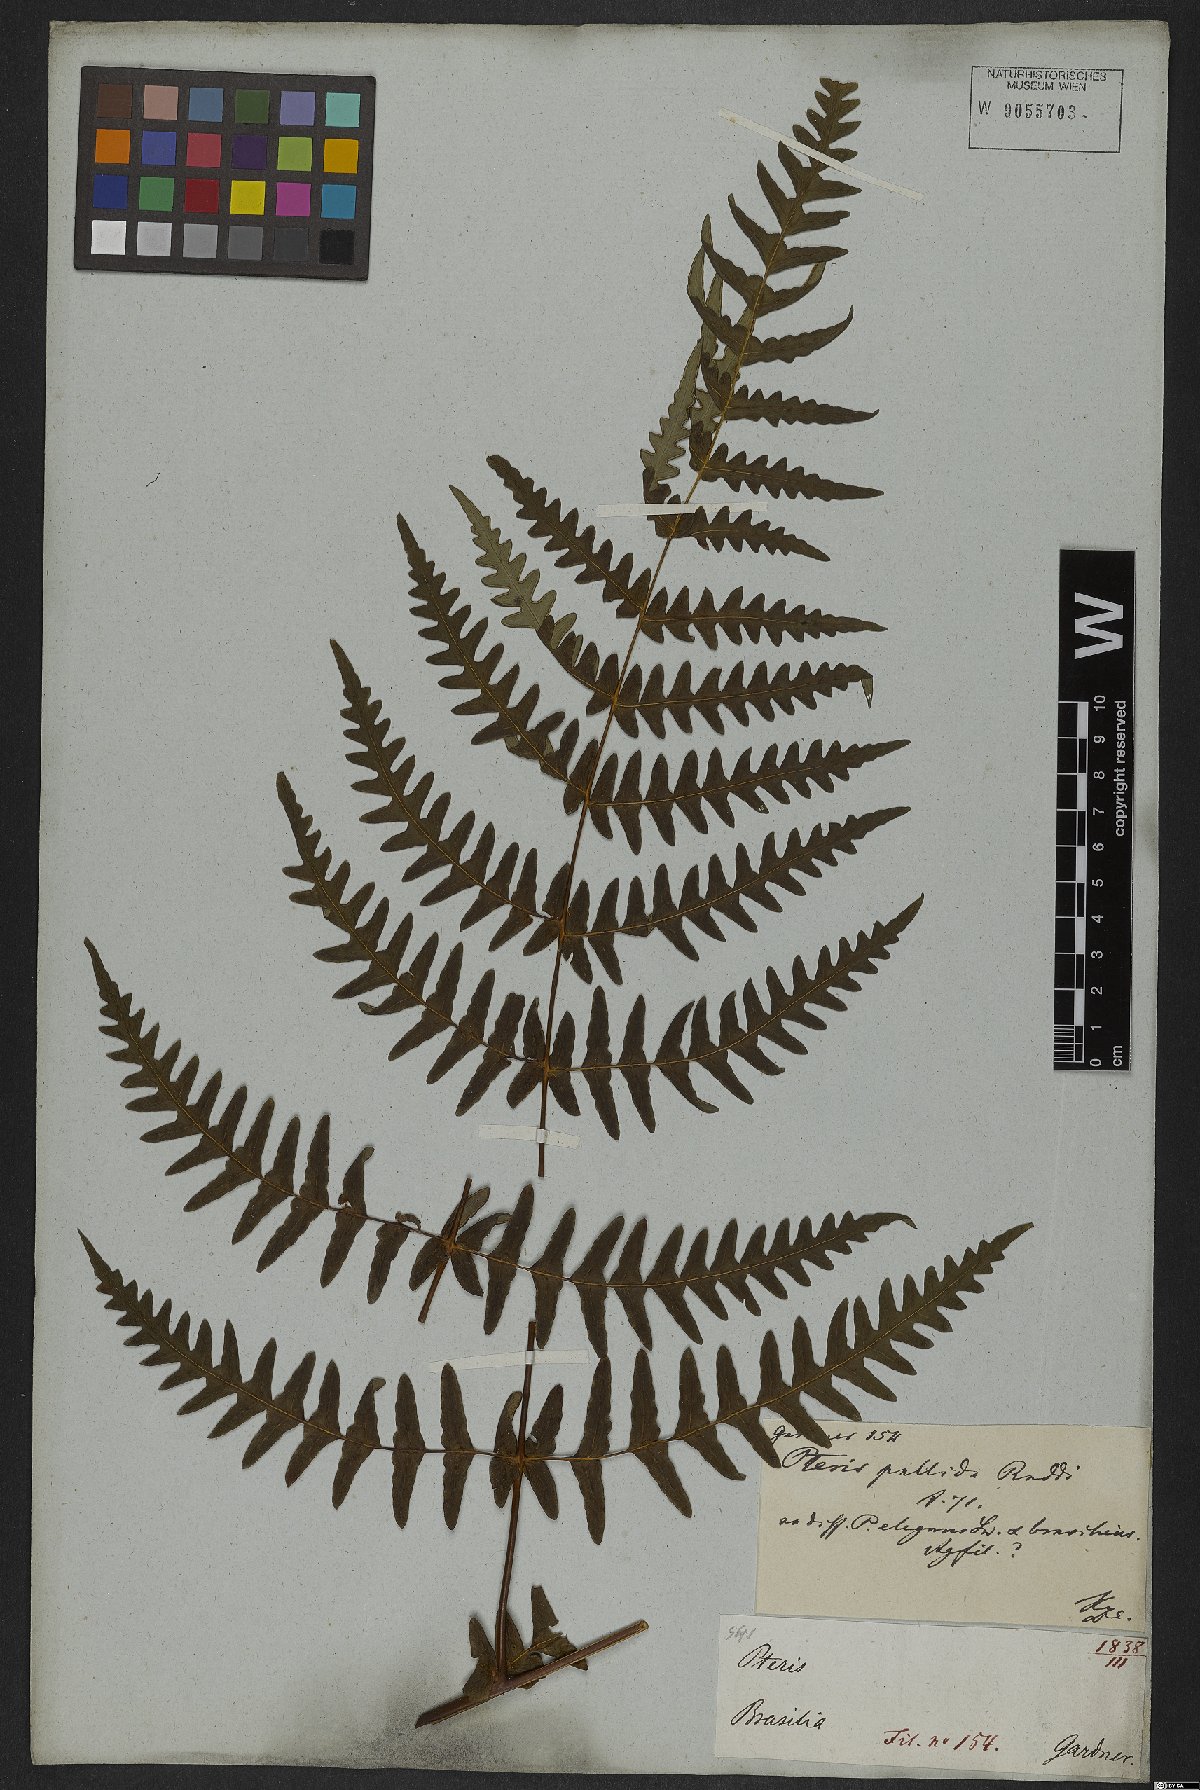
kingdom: Plantae
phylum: Tracheophyta
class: Polypodiopsida
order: Polypodiales
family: Dennstaedtiaceae
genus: Histiopteris
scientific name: Histiopteris incisa
